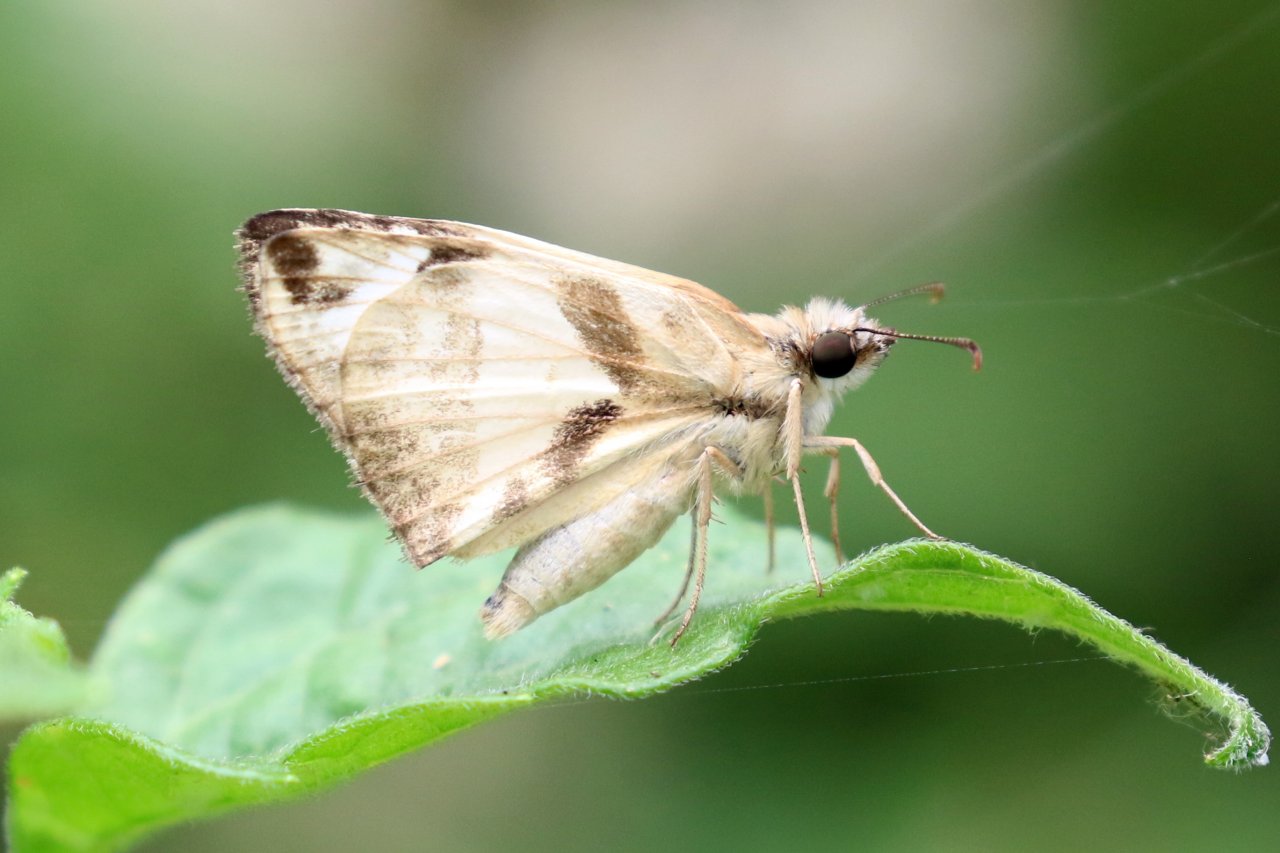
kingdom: Animalia
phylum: Arthropoda
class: Insecta
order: Lepidoptera
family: Hesperiidae
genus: Heliopetes
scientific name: Heliopetes laviana
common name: Laviana White-Skipper
